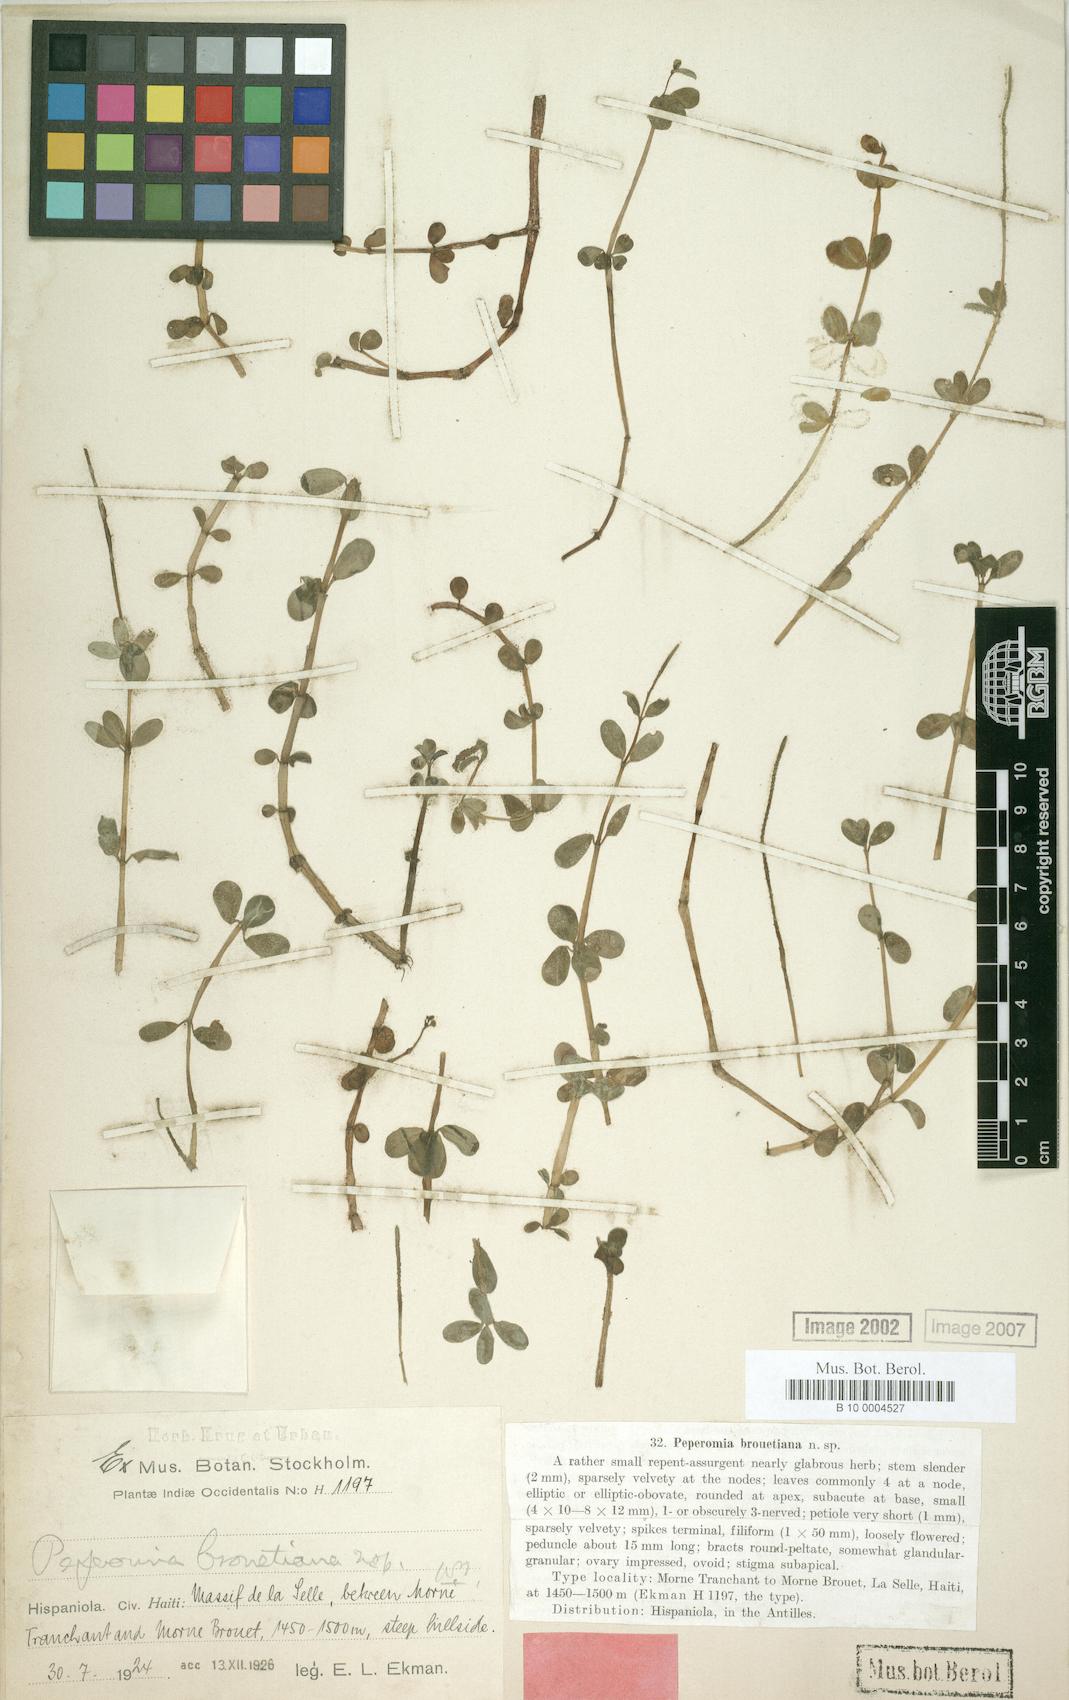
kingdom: Plantae
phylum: Tracheophyta
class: Magnoliopsida
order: Piperales
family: Piperaceae
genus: Peperomia
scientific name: Peperomia brouetiana
